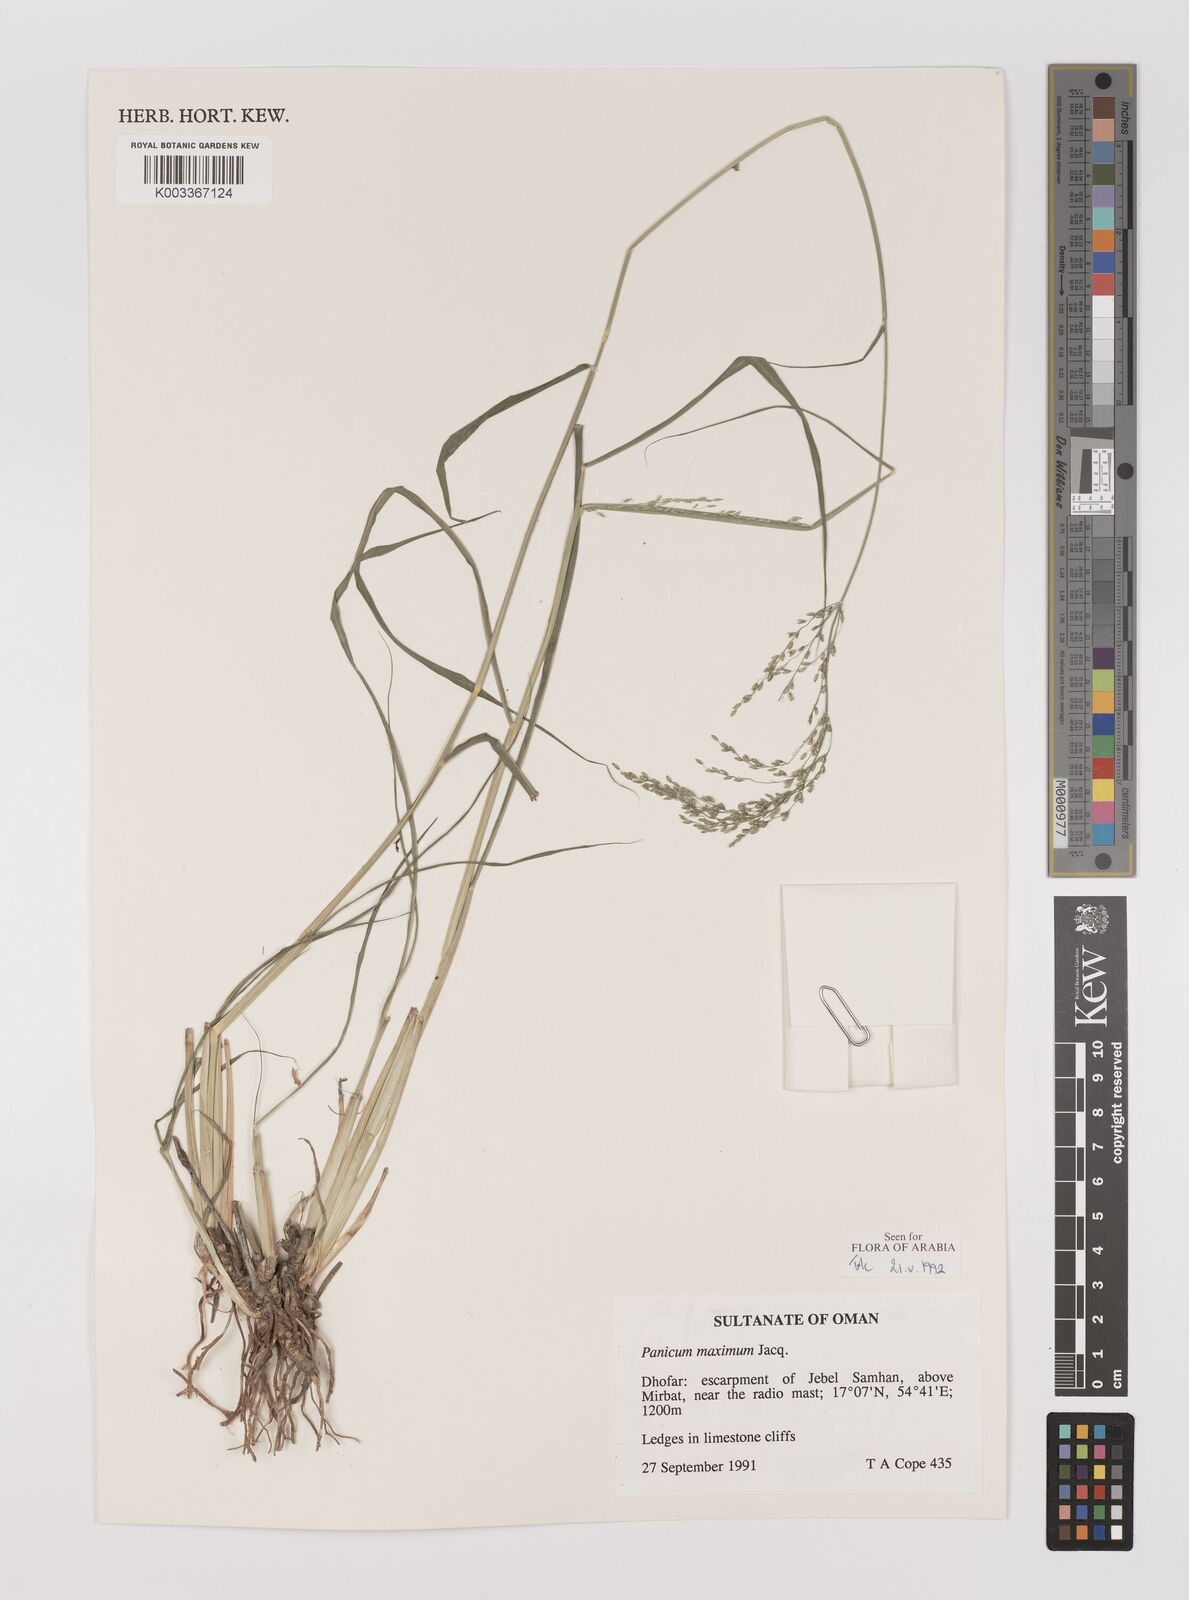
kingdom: Plantae
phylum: Tracheophyta
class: Liliopsida
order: Poales
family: Poaceae
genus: Megathyrsus
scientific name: Megathyrsus maximus
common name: Guineagrass
